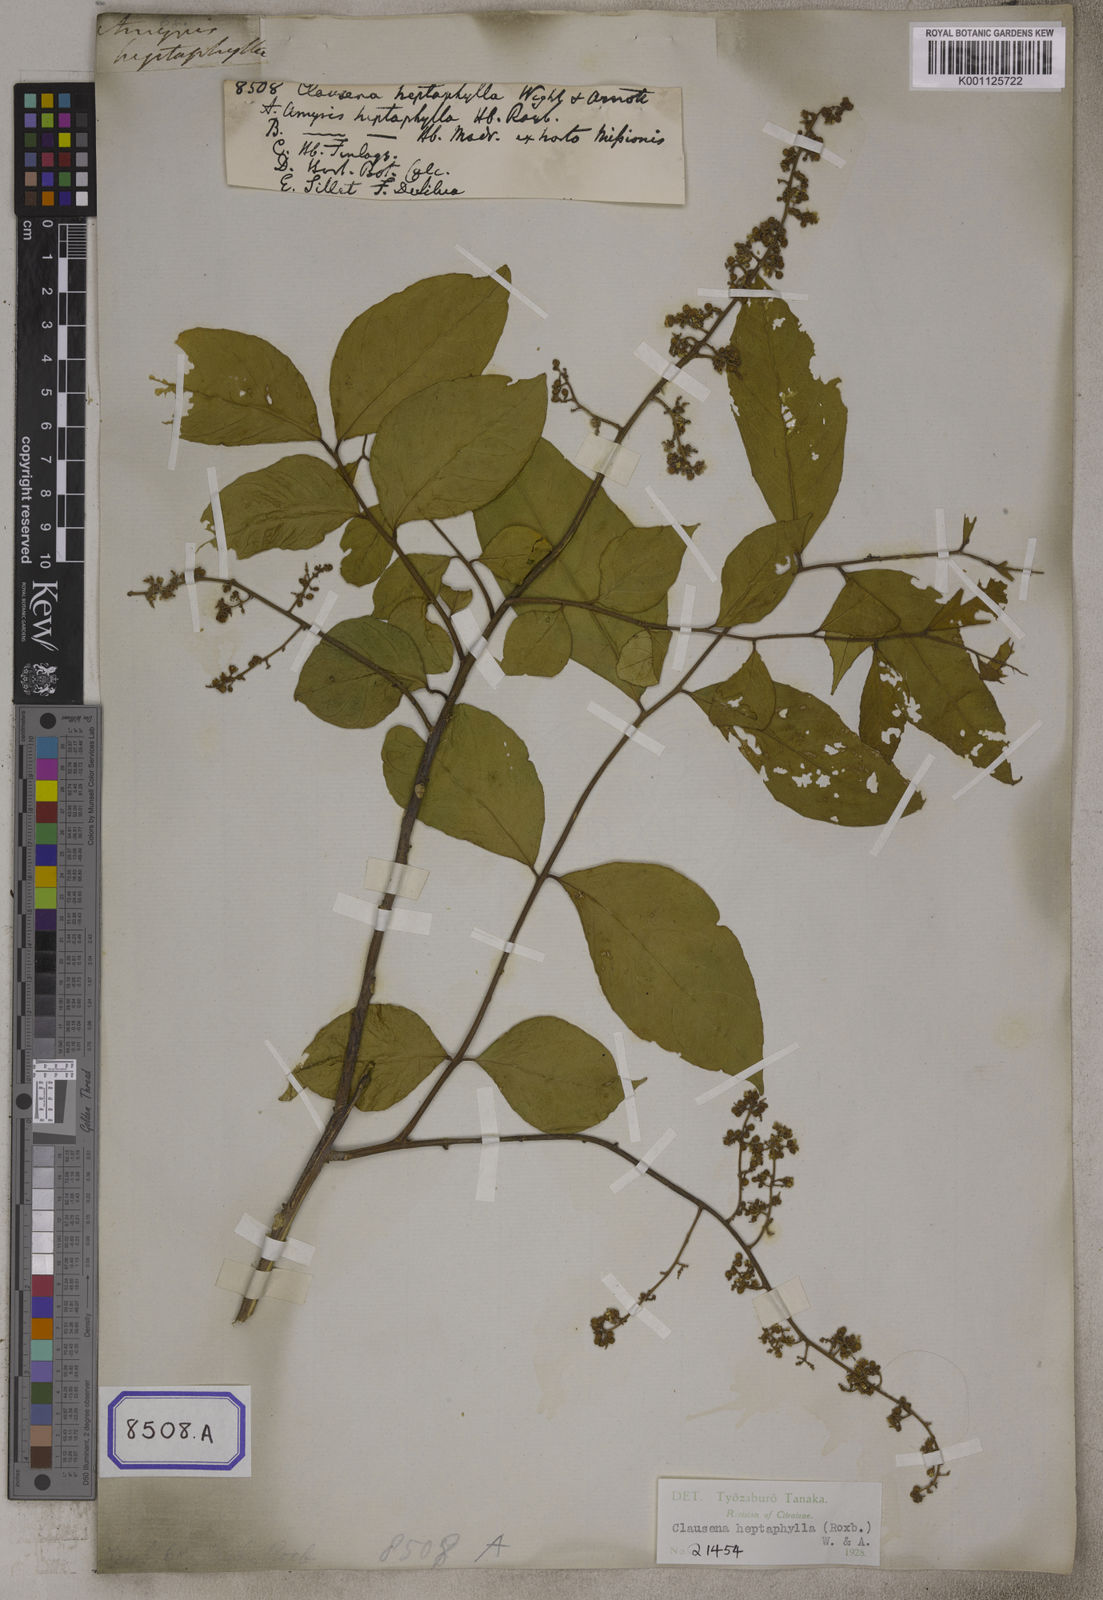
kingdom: Plantae
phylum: Tracheophyta
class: Magnoliopsida
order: Sapindales
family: Rutaceae
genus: Clausena
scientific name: Clausena heptaphylla
